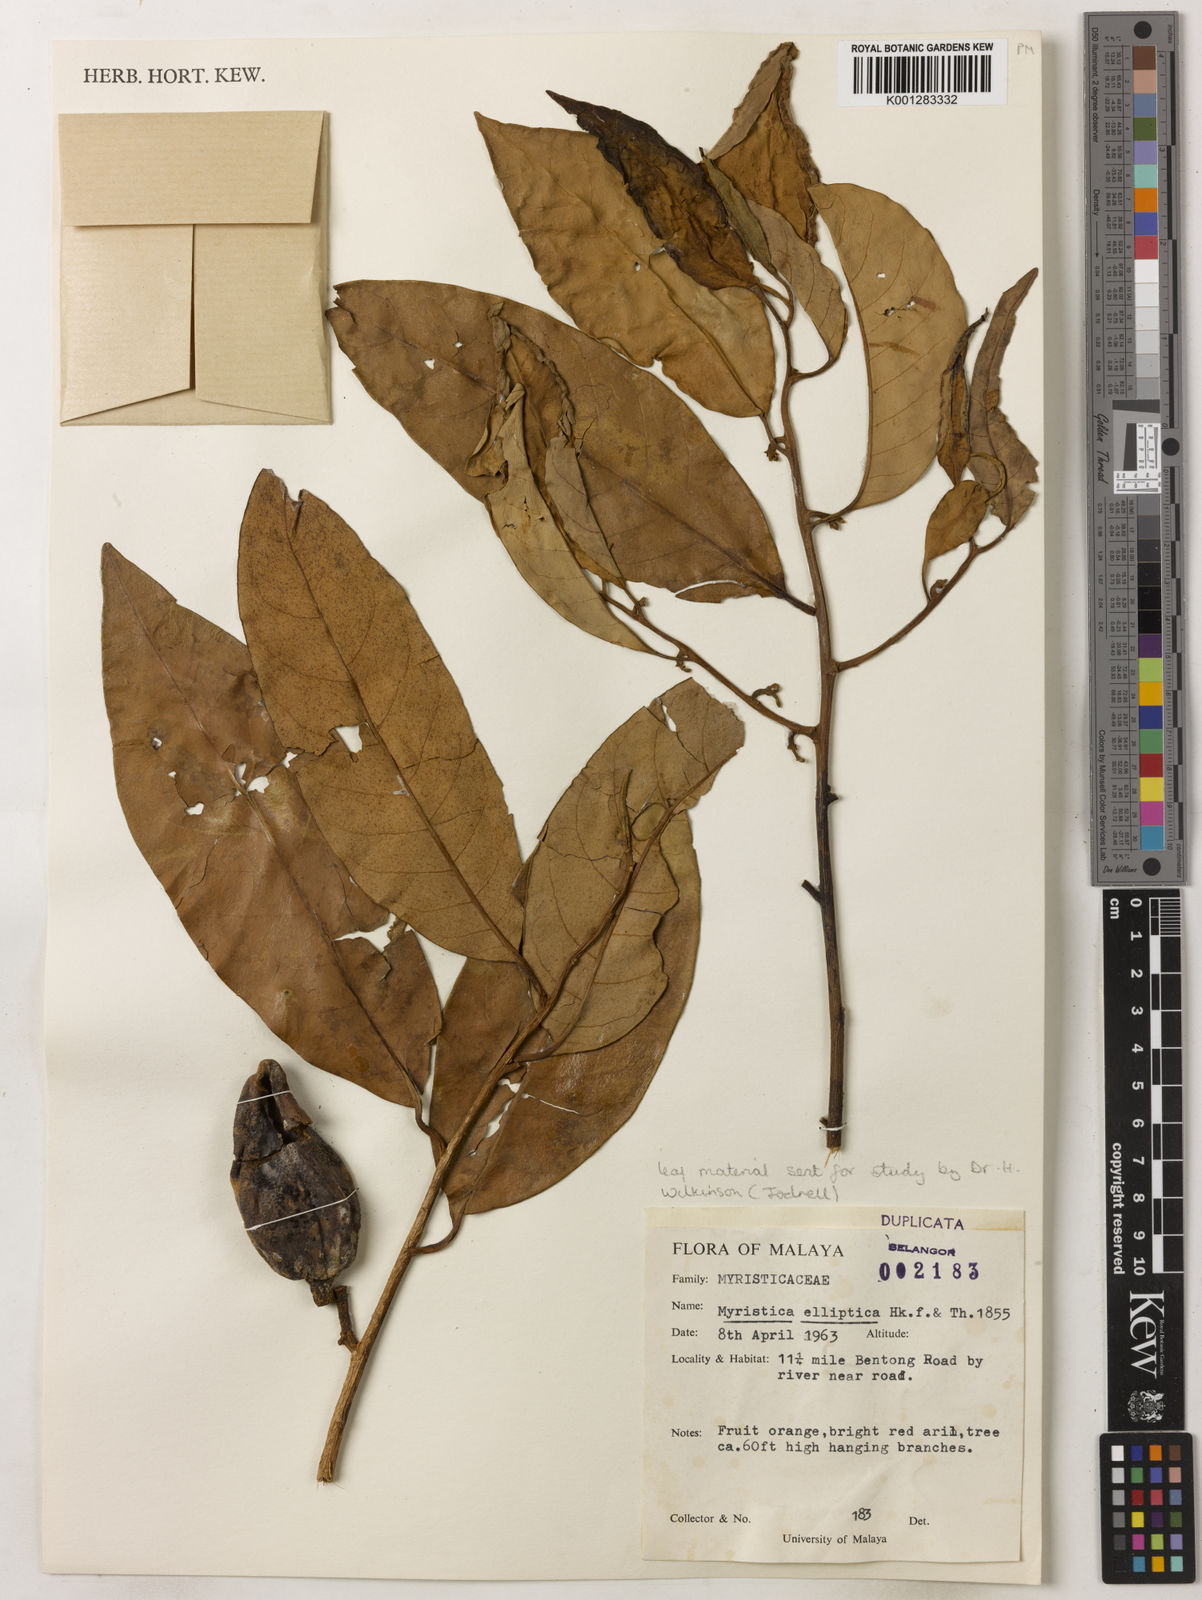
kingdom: Plantae
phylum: Tracheophyta
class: Magnoliopsida
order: Magnoliales
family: Myristicaceae
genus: Myristica
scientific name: Myristica elliptica
